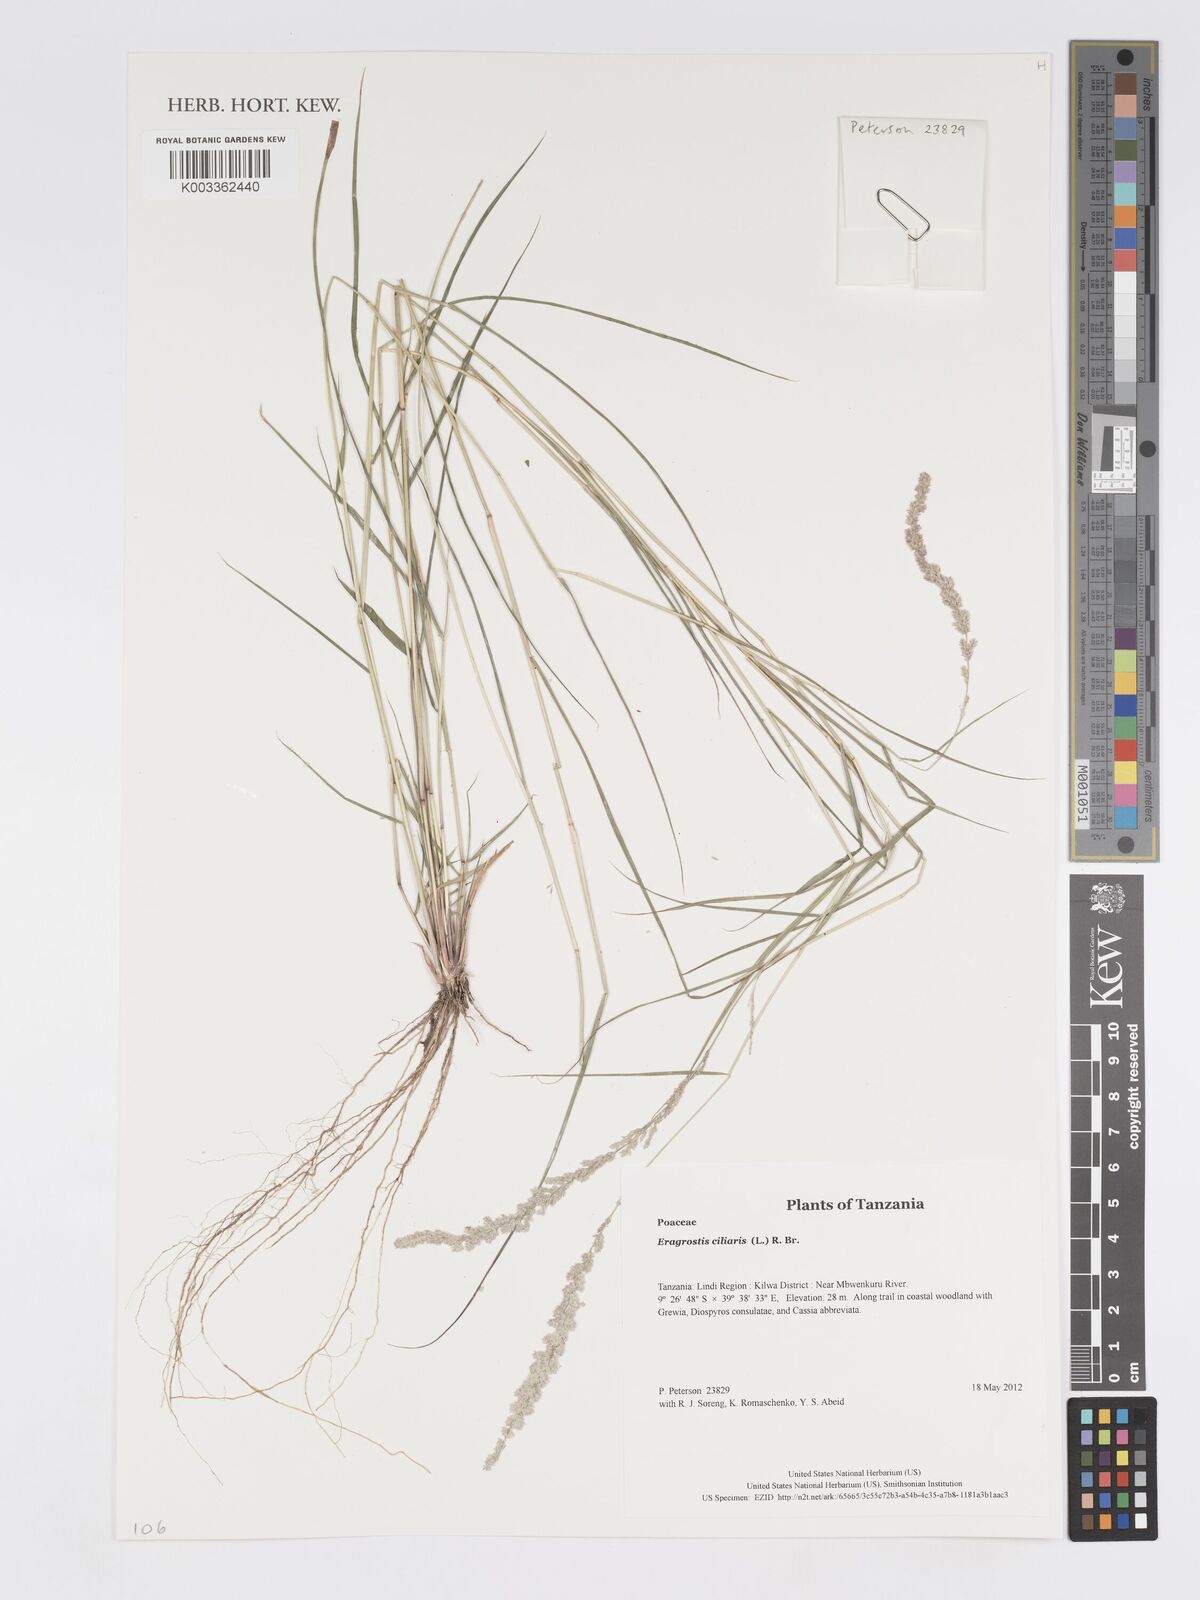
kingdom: Plantae
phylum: Tracheophyta
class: Liliopsida
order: Poales
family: Poaceae
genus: Eragrostis
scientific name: Eragrostis ciliaris
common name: Gophertail lovegrass
